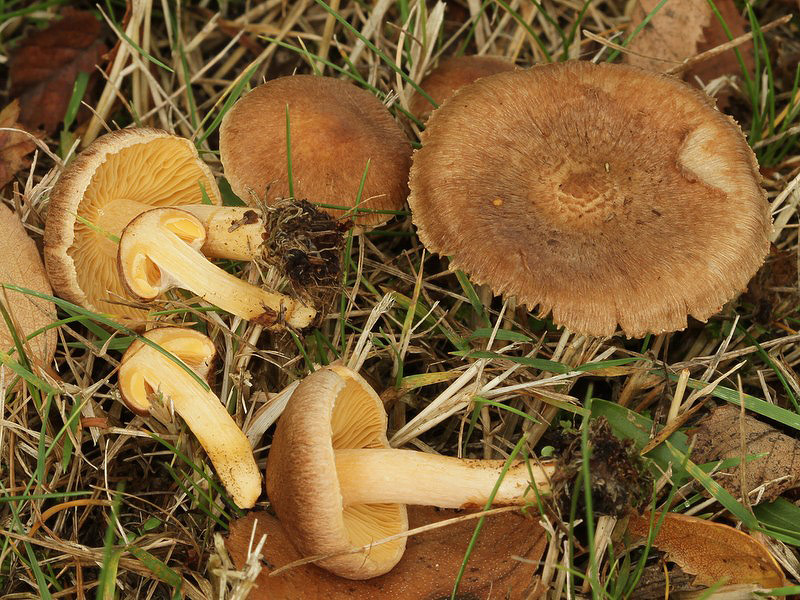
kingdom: Fungi
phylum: Basidiomycota
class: Agaricomycetes
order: Agaricales
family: Inocybaceae
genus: Inocybe
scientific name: Inocybe aurantiifolia
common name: gyldenbladet trævlhat
